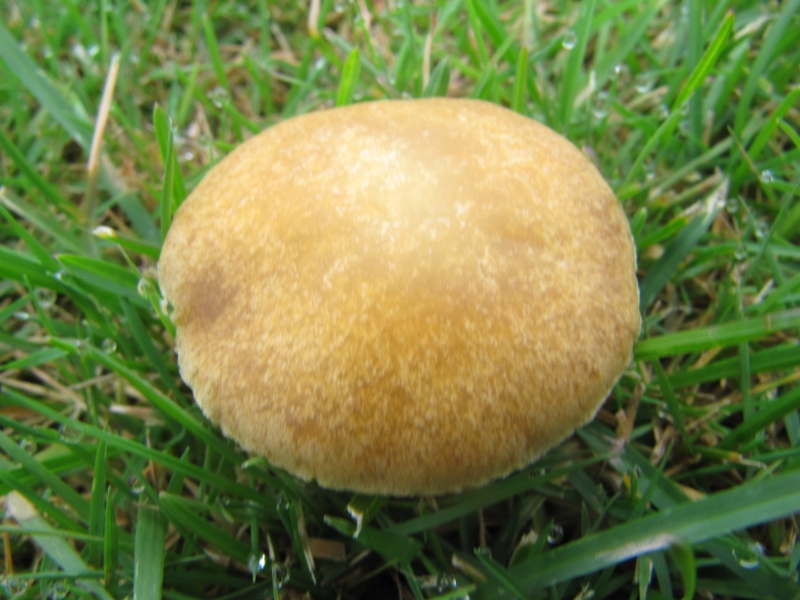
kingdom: Fungi
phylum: Basidiomycota
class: Agaricomycetes
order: Agaricales
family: Hymenogastraceae
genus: Psilocybe
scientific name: Psilocybe coronilla
